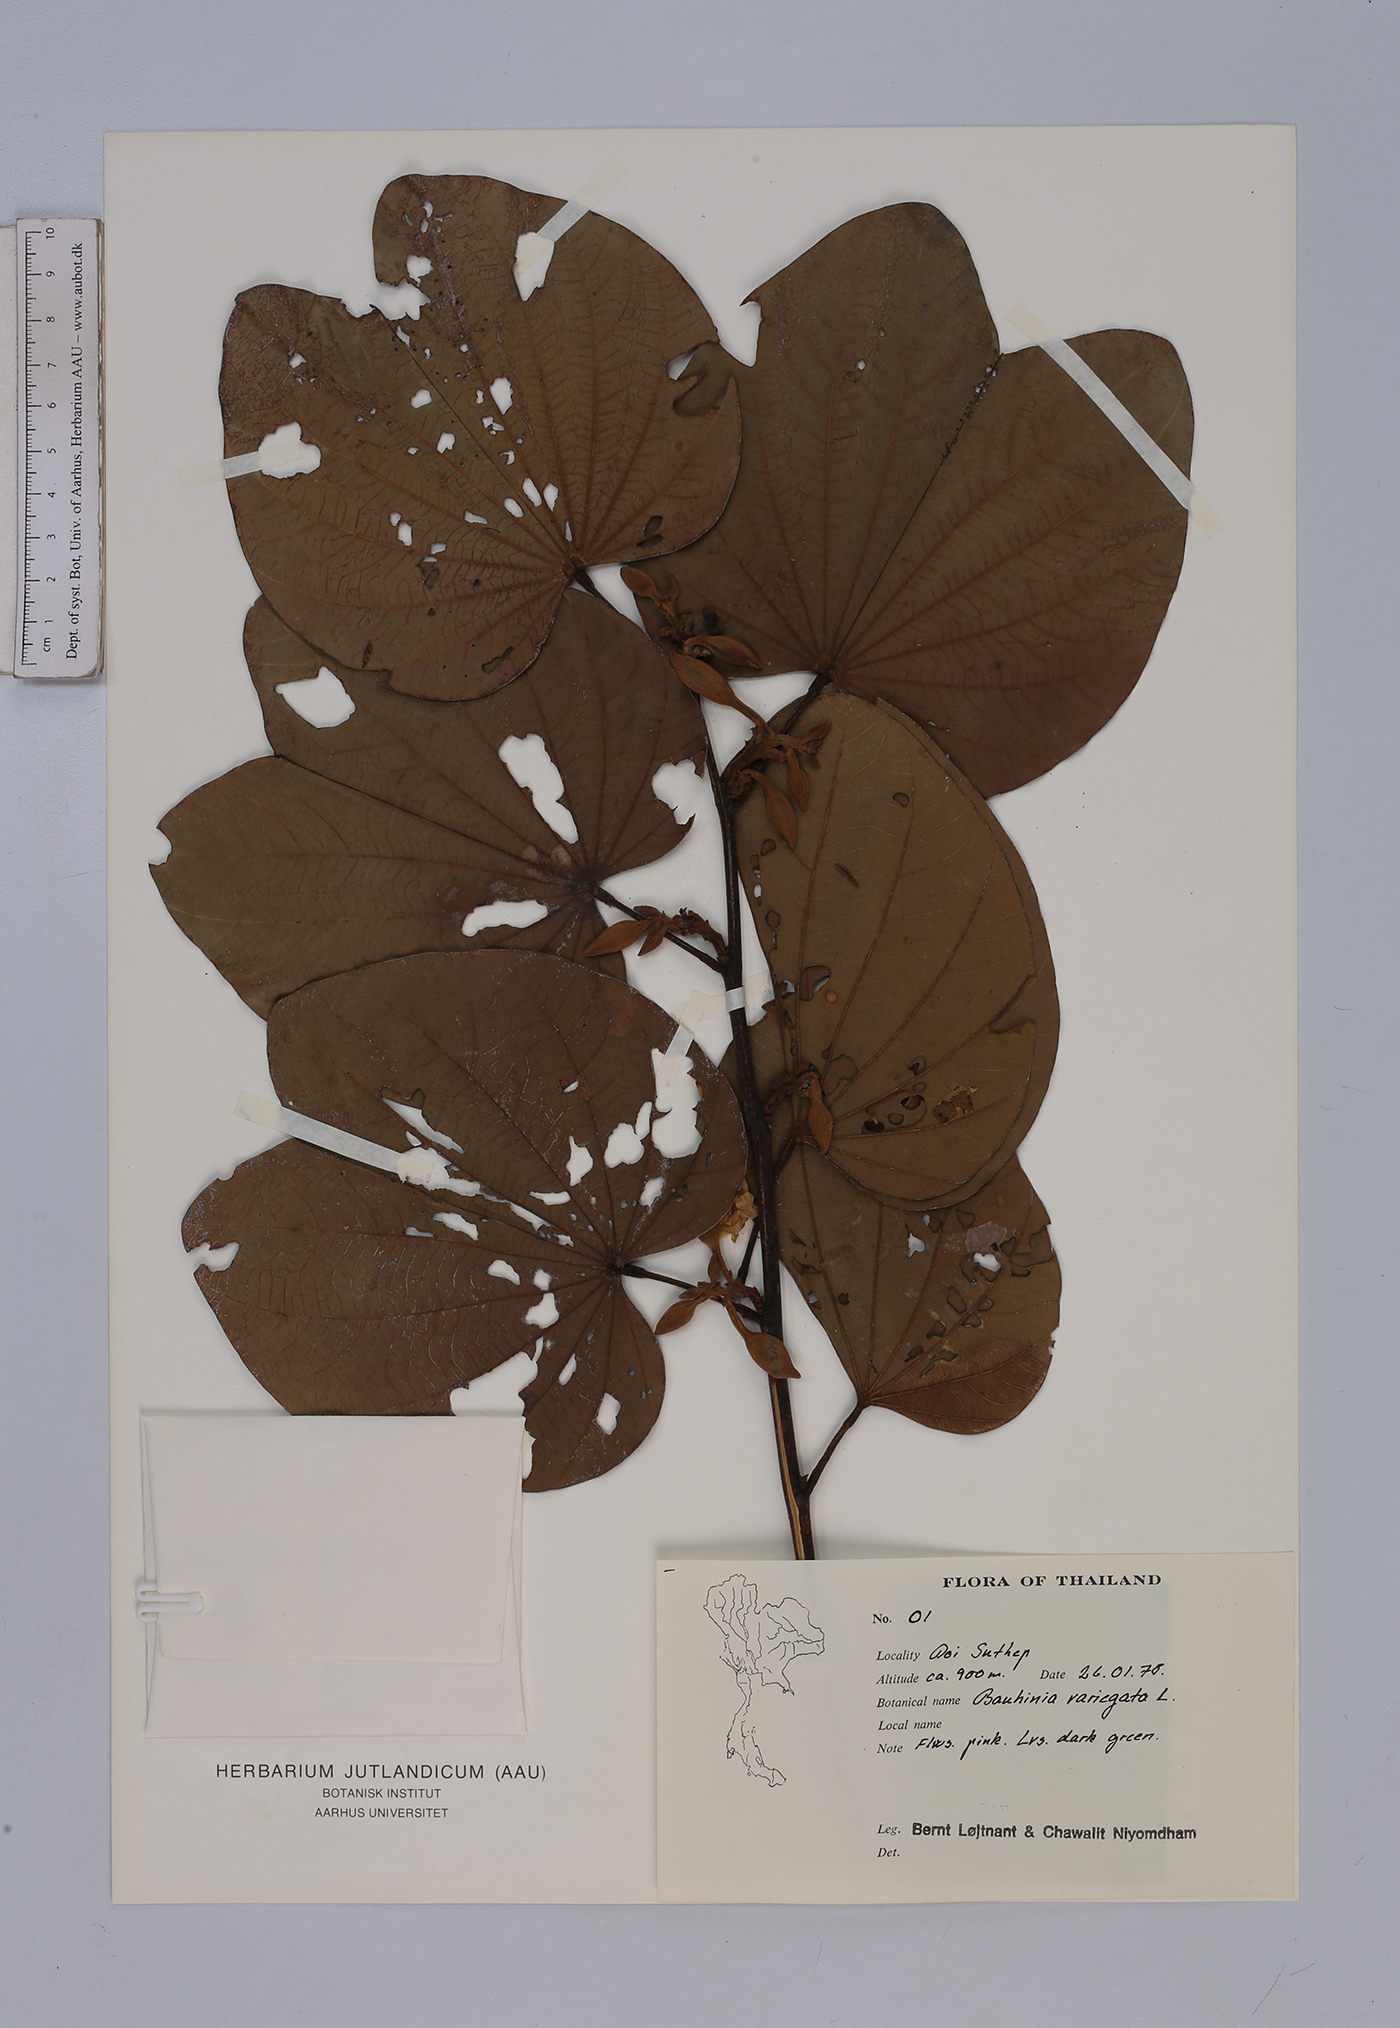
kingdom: Plantae
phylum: Tracheophyta
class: Magnoliopsida
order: Fabales
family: Fabaceae
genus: Bauhinia
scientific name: Bauhinia variegata
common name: Mountain ebony
